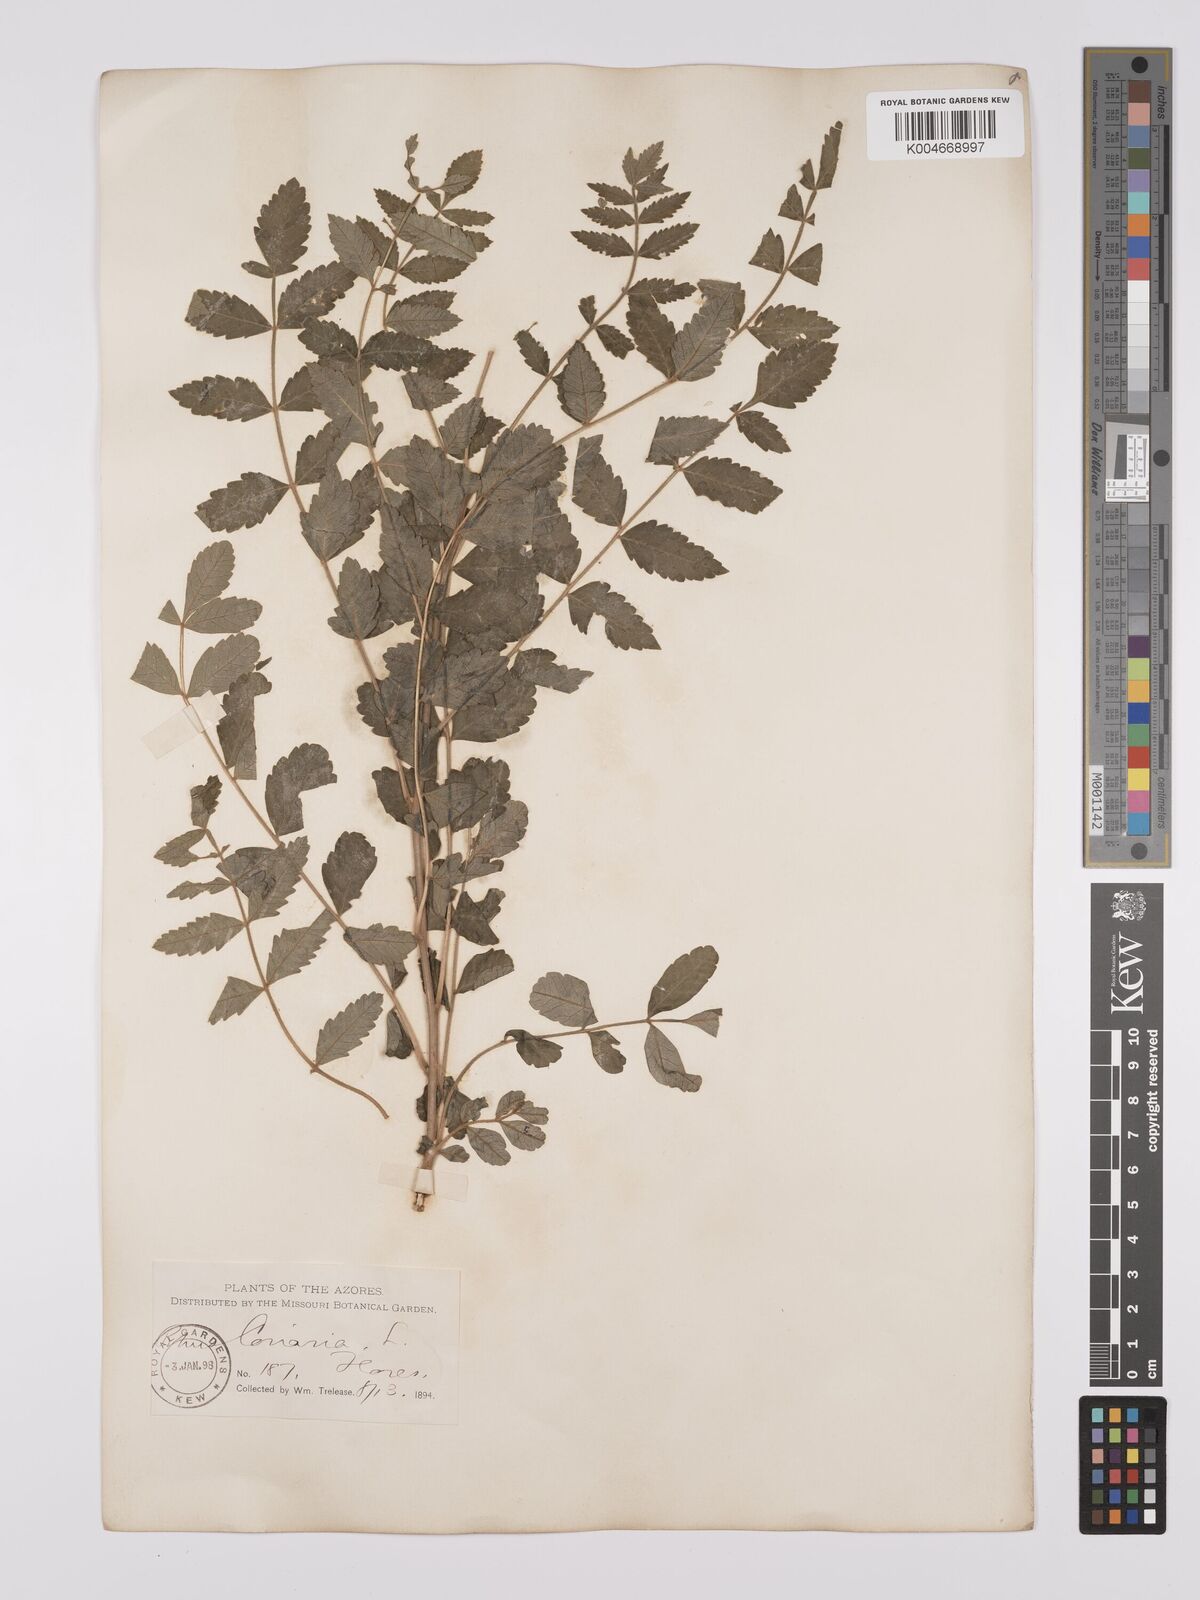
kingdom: Plantae
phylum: Tracheophyta
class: Magnoliopsida
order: Sapindales
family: Anacardiaceae
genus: Rhus
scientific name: Rhus coriaria
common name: Tanner's sumach
